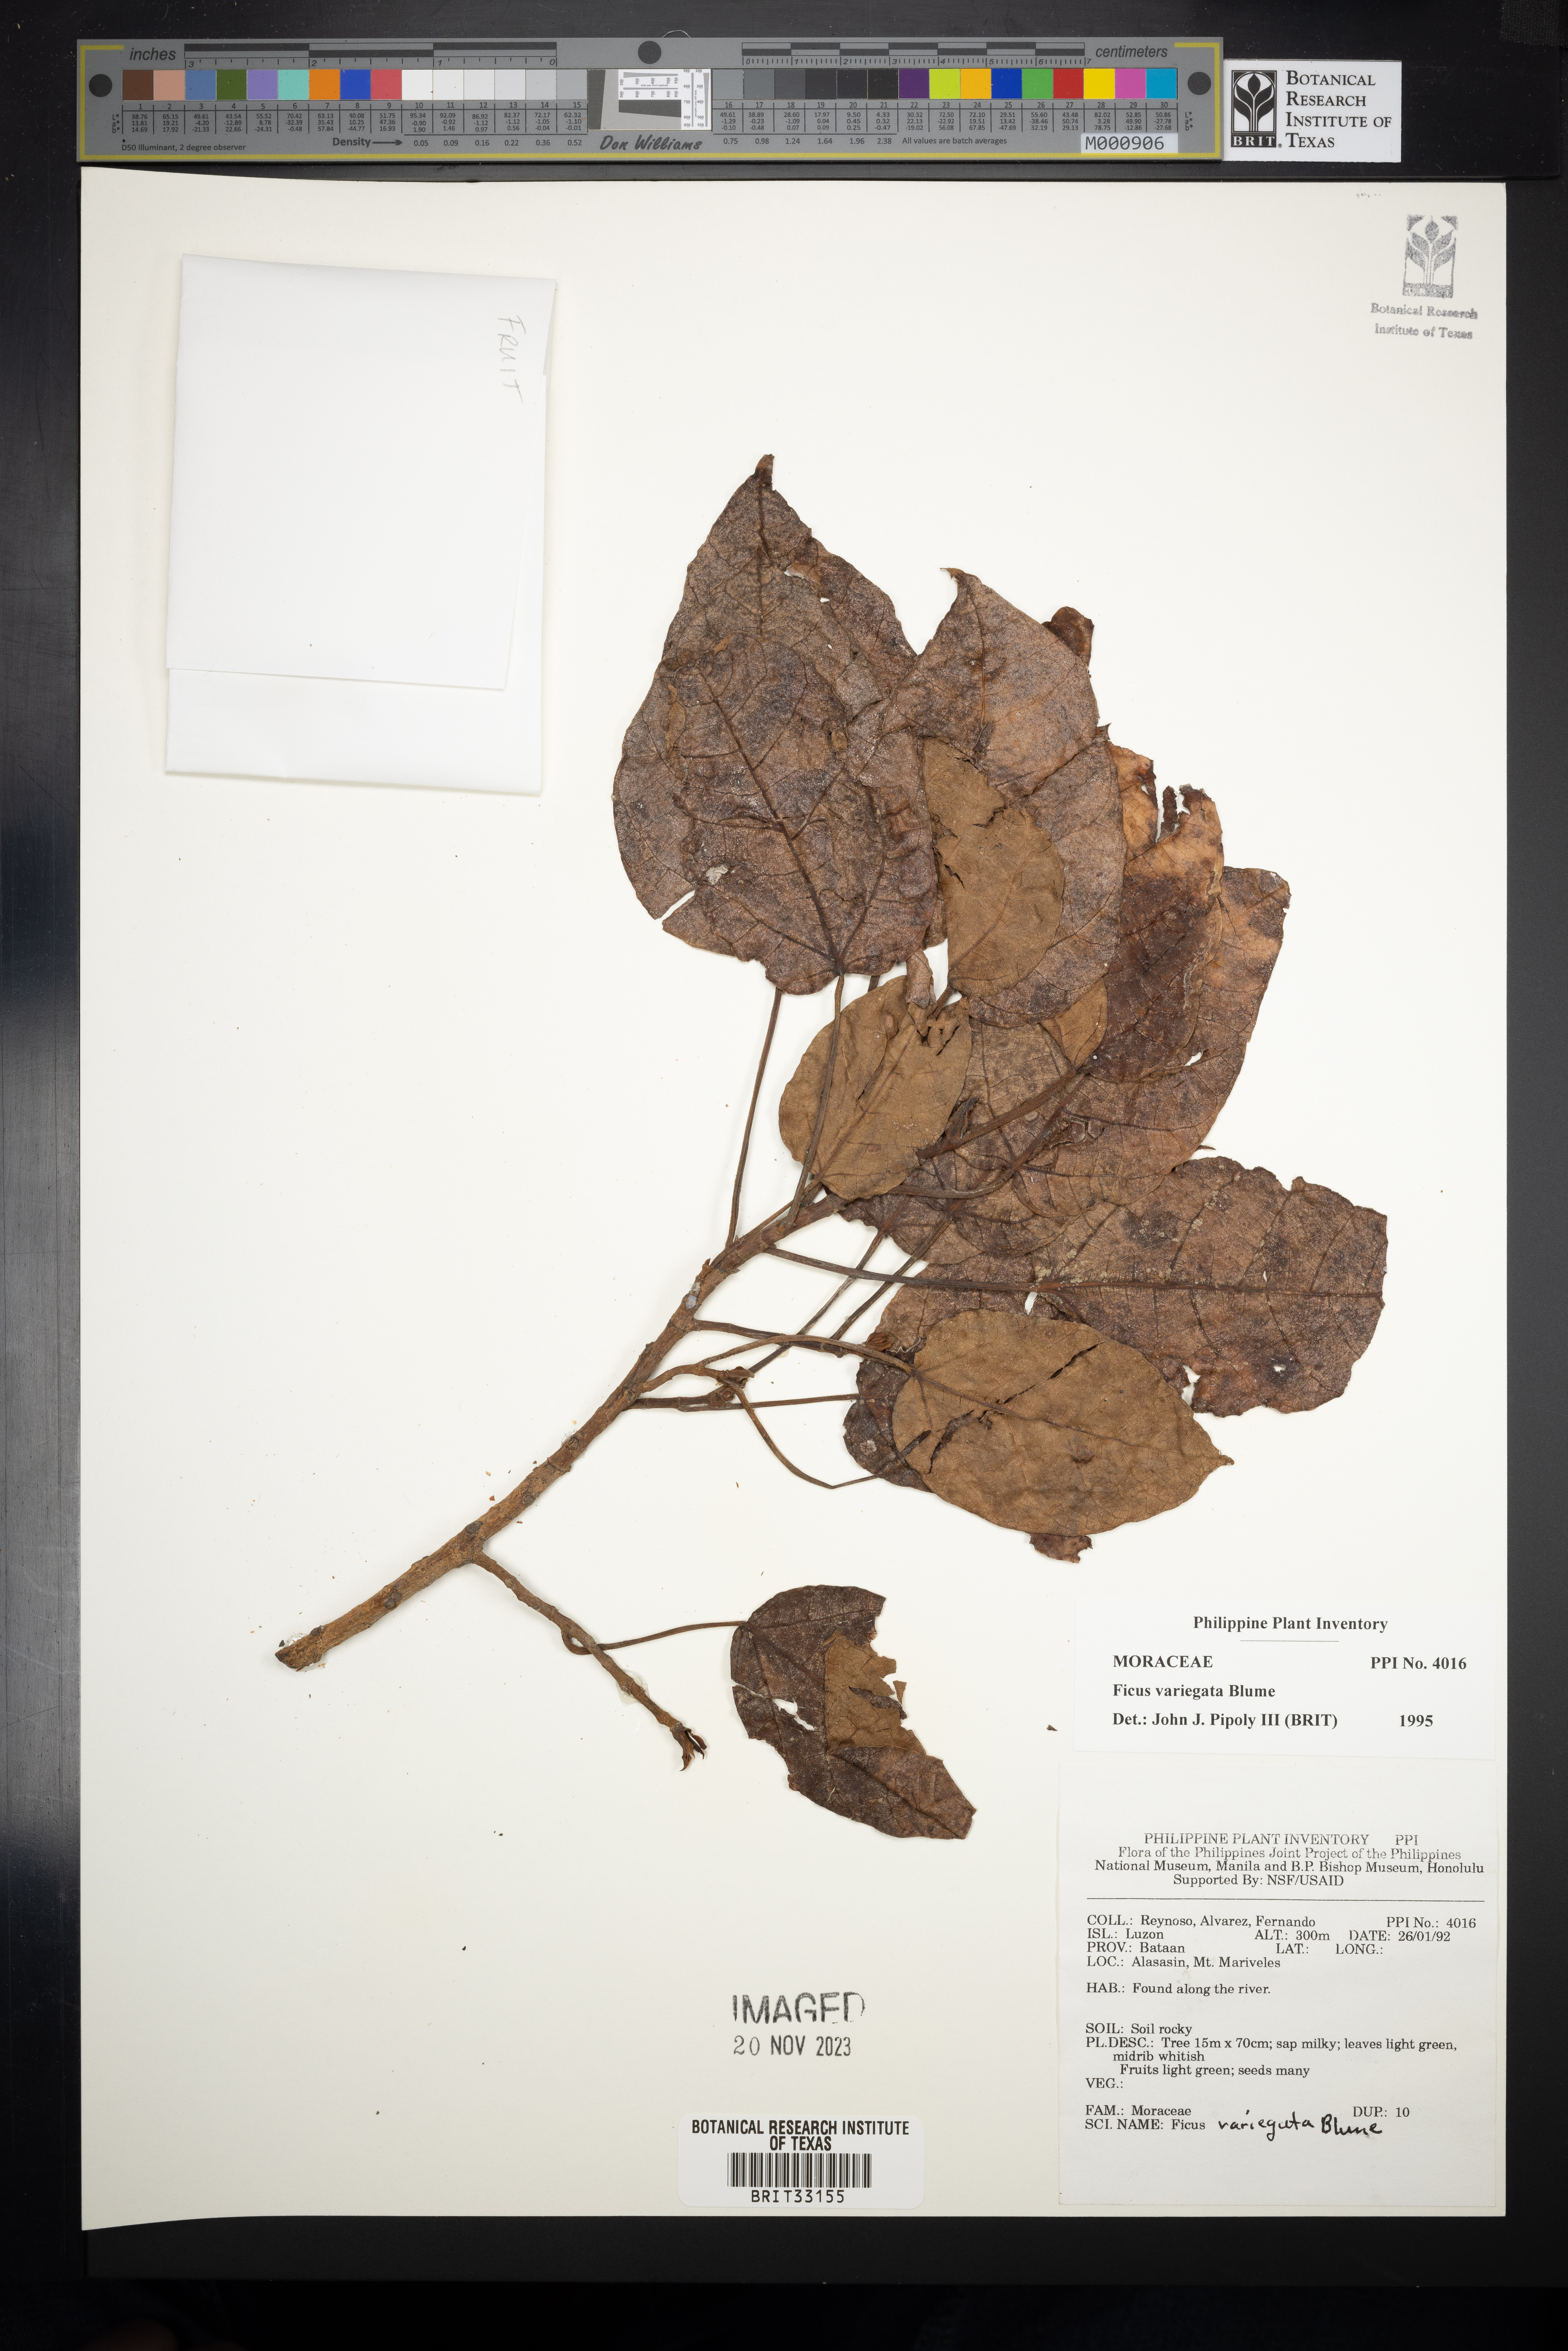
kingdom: Plantae
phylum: Tracheophyta
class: Magnoliopsida
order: Rosales
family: Moraceae
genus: Ficus
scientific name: Ficus variegata
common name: Variegated fig
